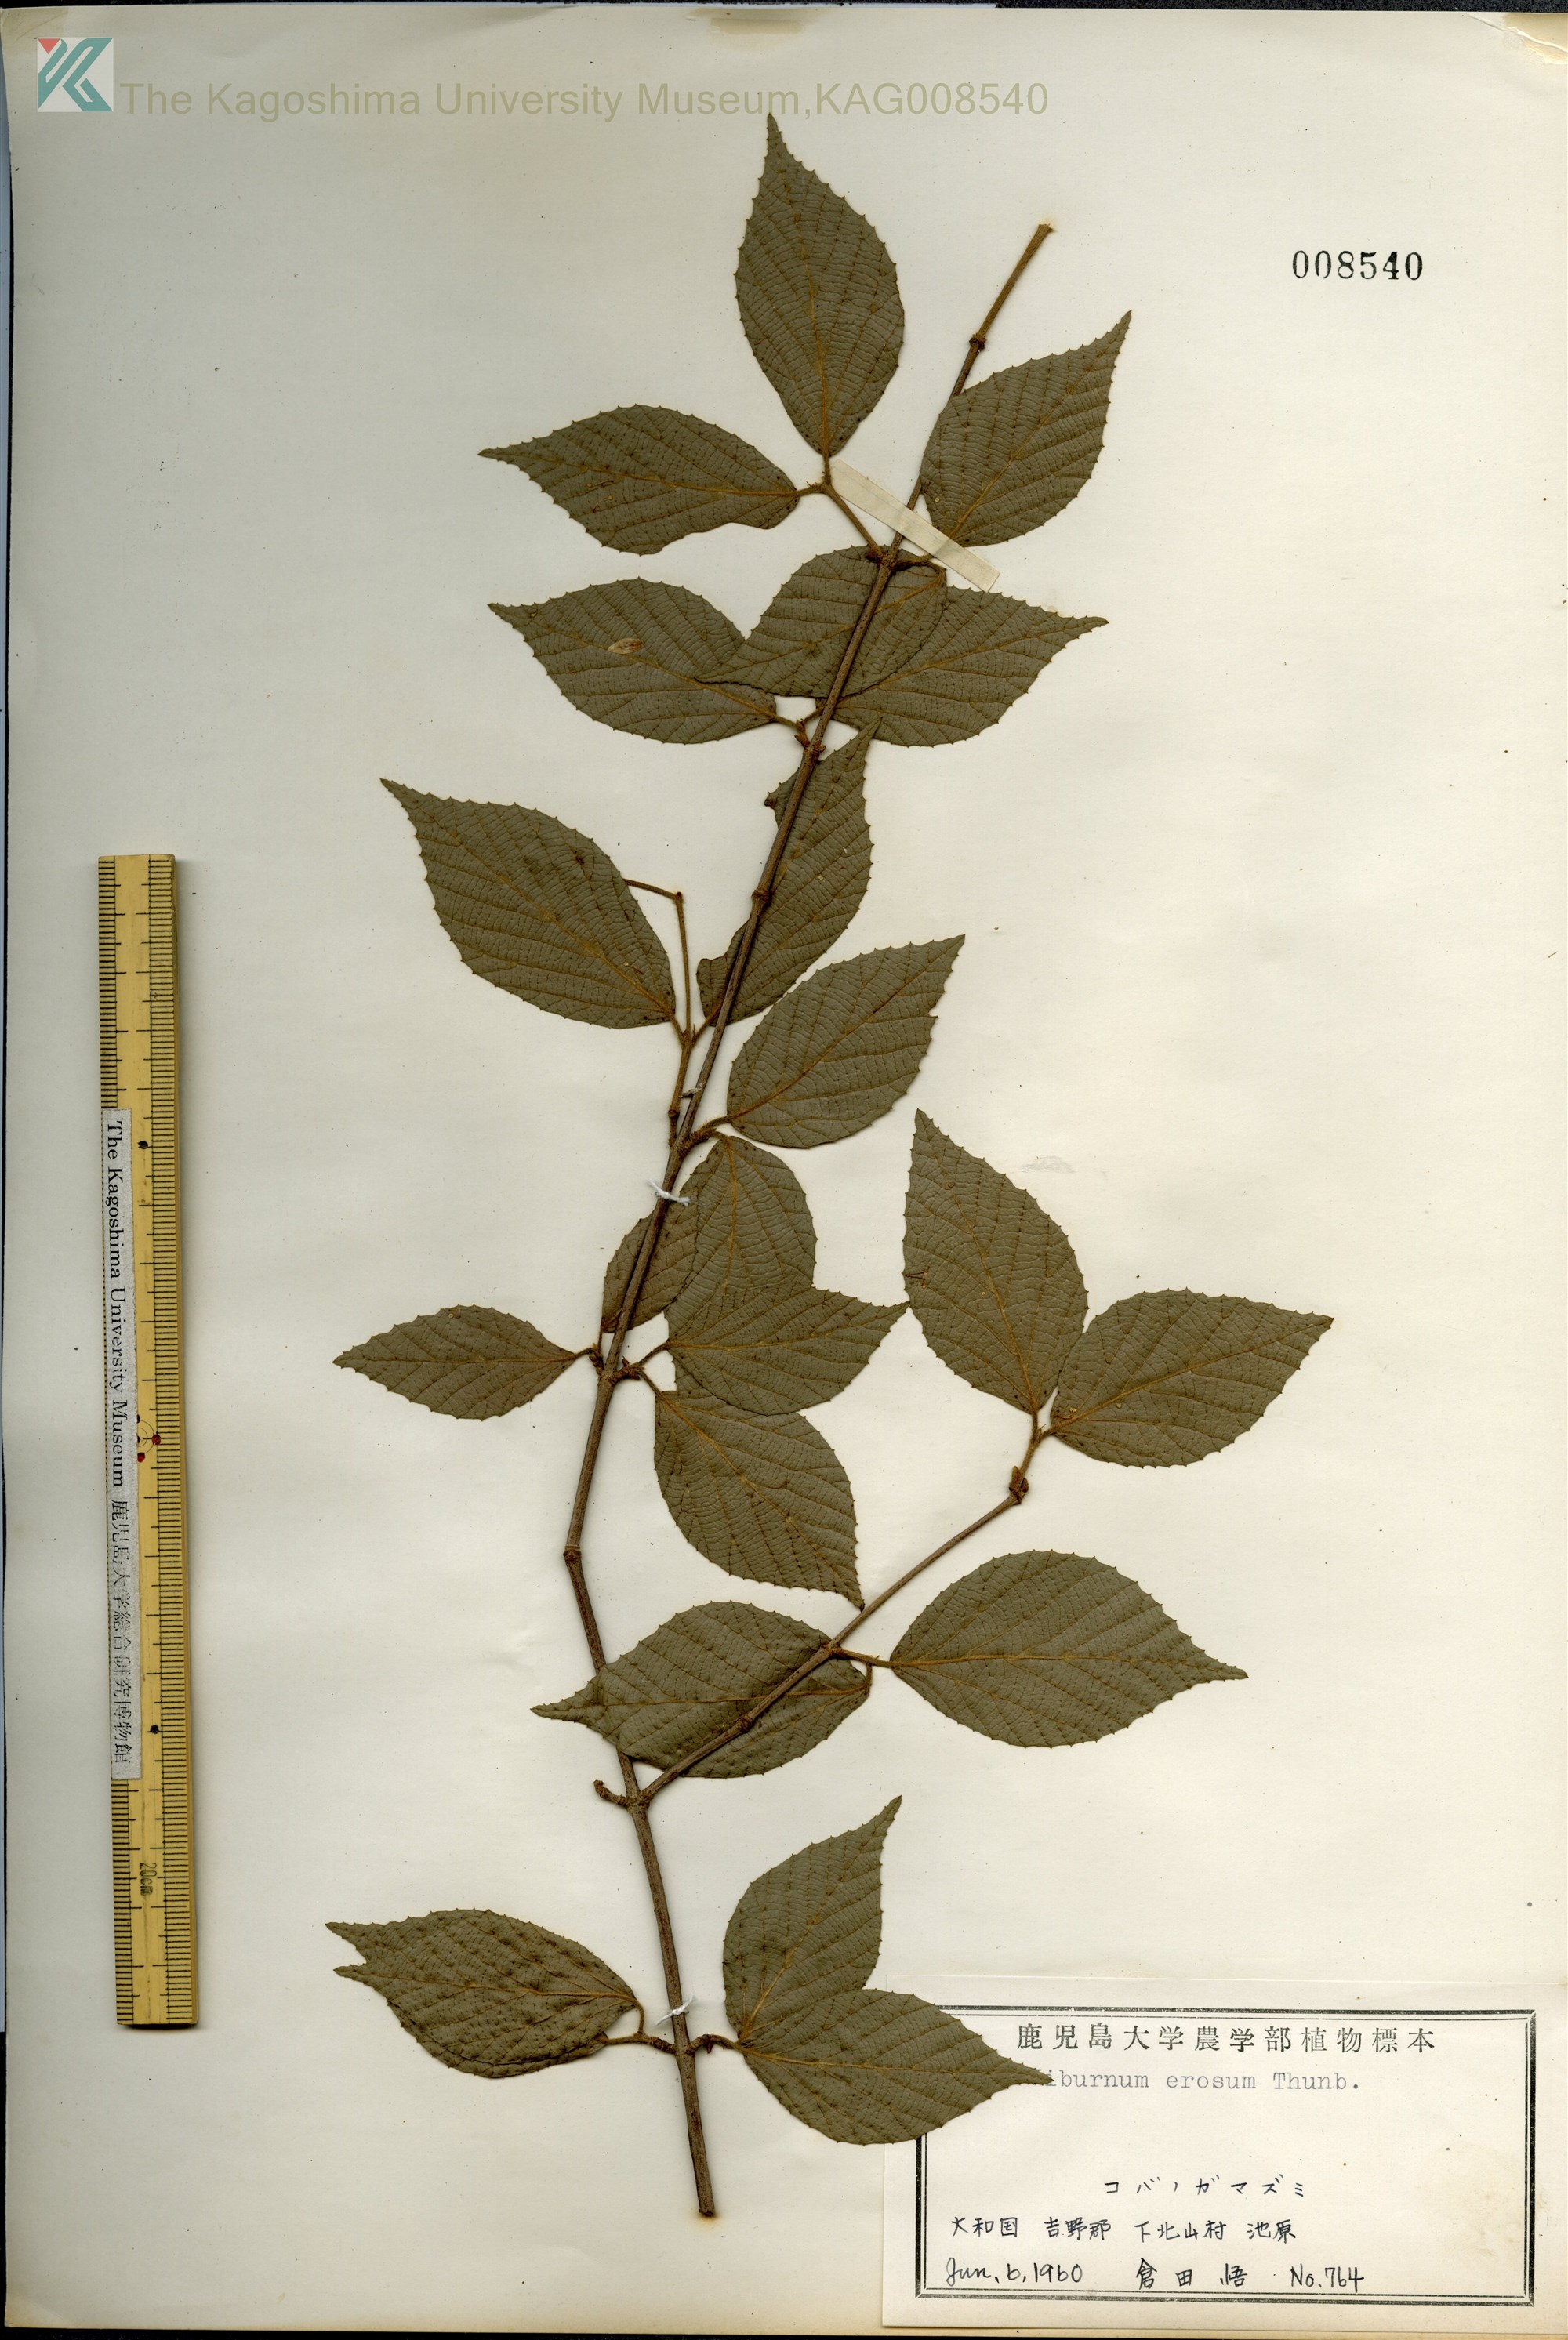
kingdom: Plantae
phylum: Tracheophyta
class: Magnoliopsida
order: Dipsacales
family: Viburnaceae
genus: Viburnum
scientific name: Viburnum erosum
